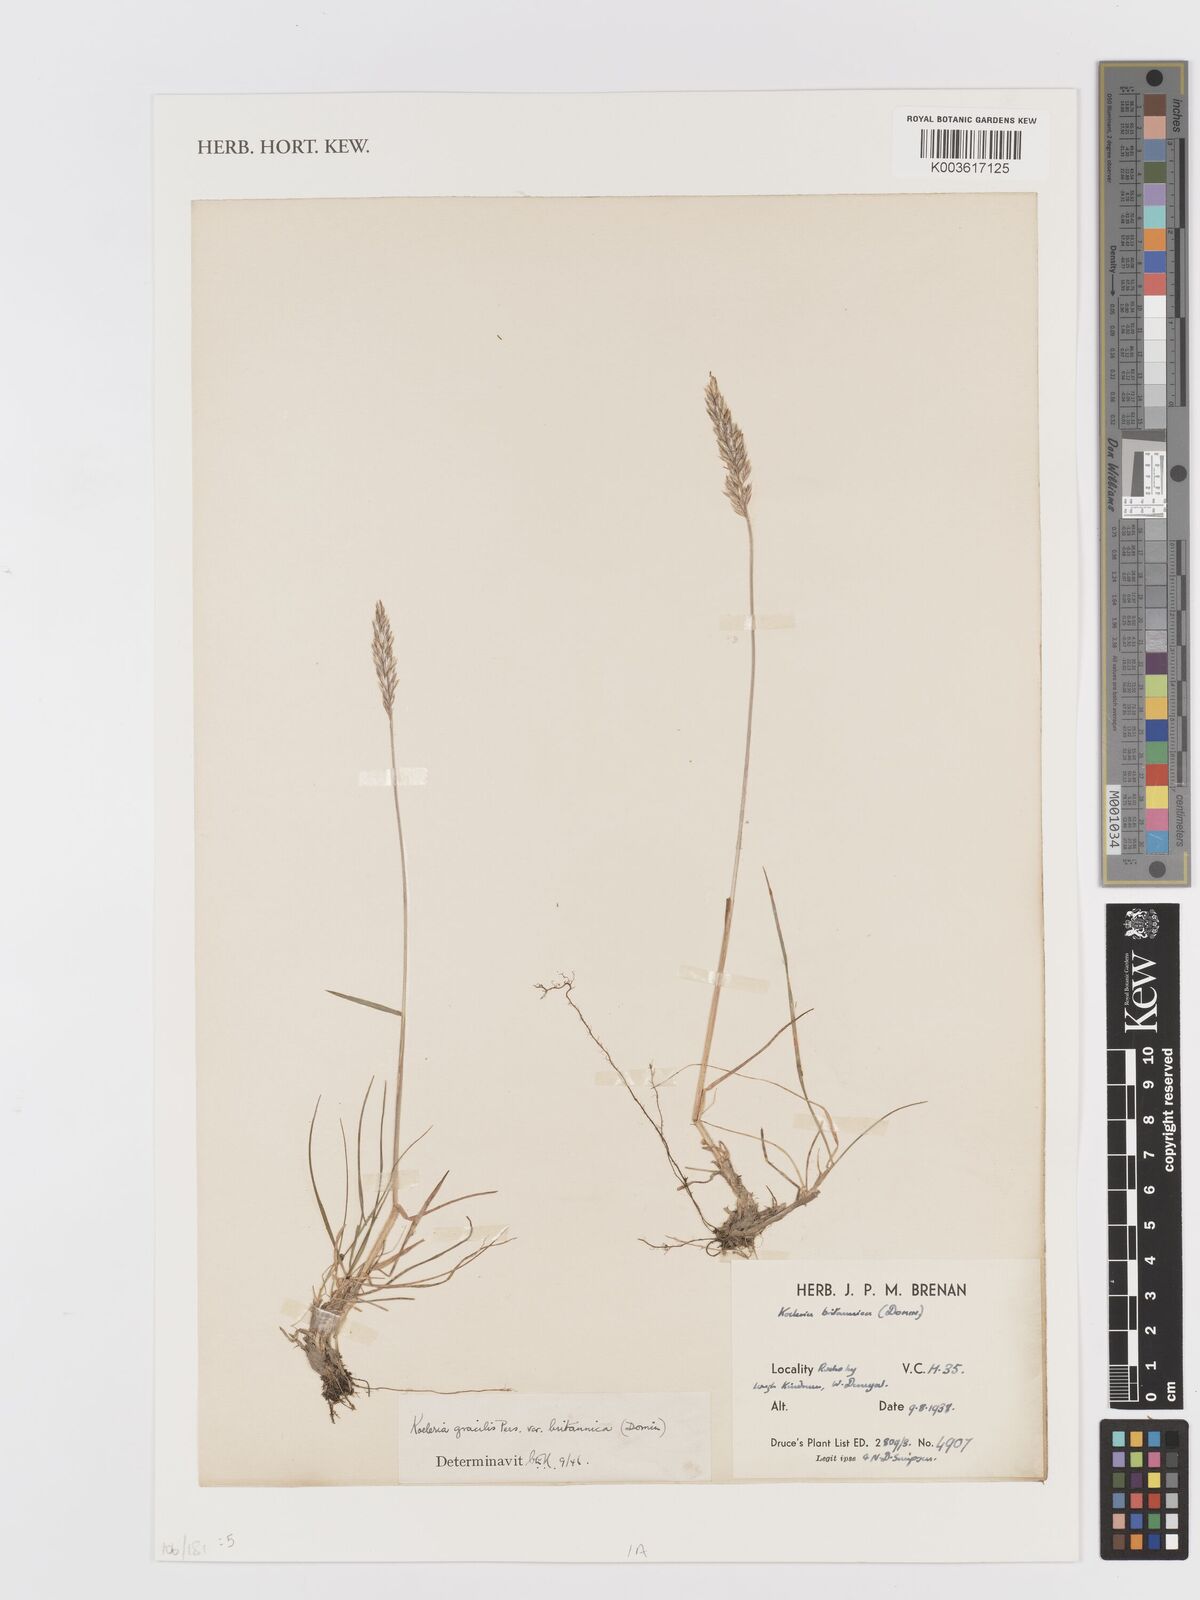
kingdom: Plantae
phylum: Tracheophyta
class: Liliopsida
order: Poales
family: Poaceae
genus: Koeleria
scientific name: Koeleria macrantha
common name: Crested hair-grass
